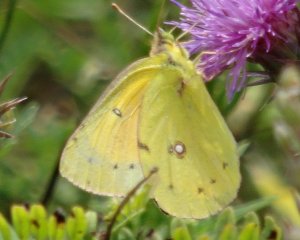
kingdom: Animalia
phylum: Arthropoda
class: Insecta
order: Lepidoptera
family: Pieridae
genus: Colias
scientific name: Colias eurytheme
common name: Orange Sulphur
